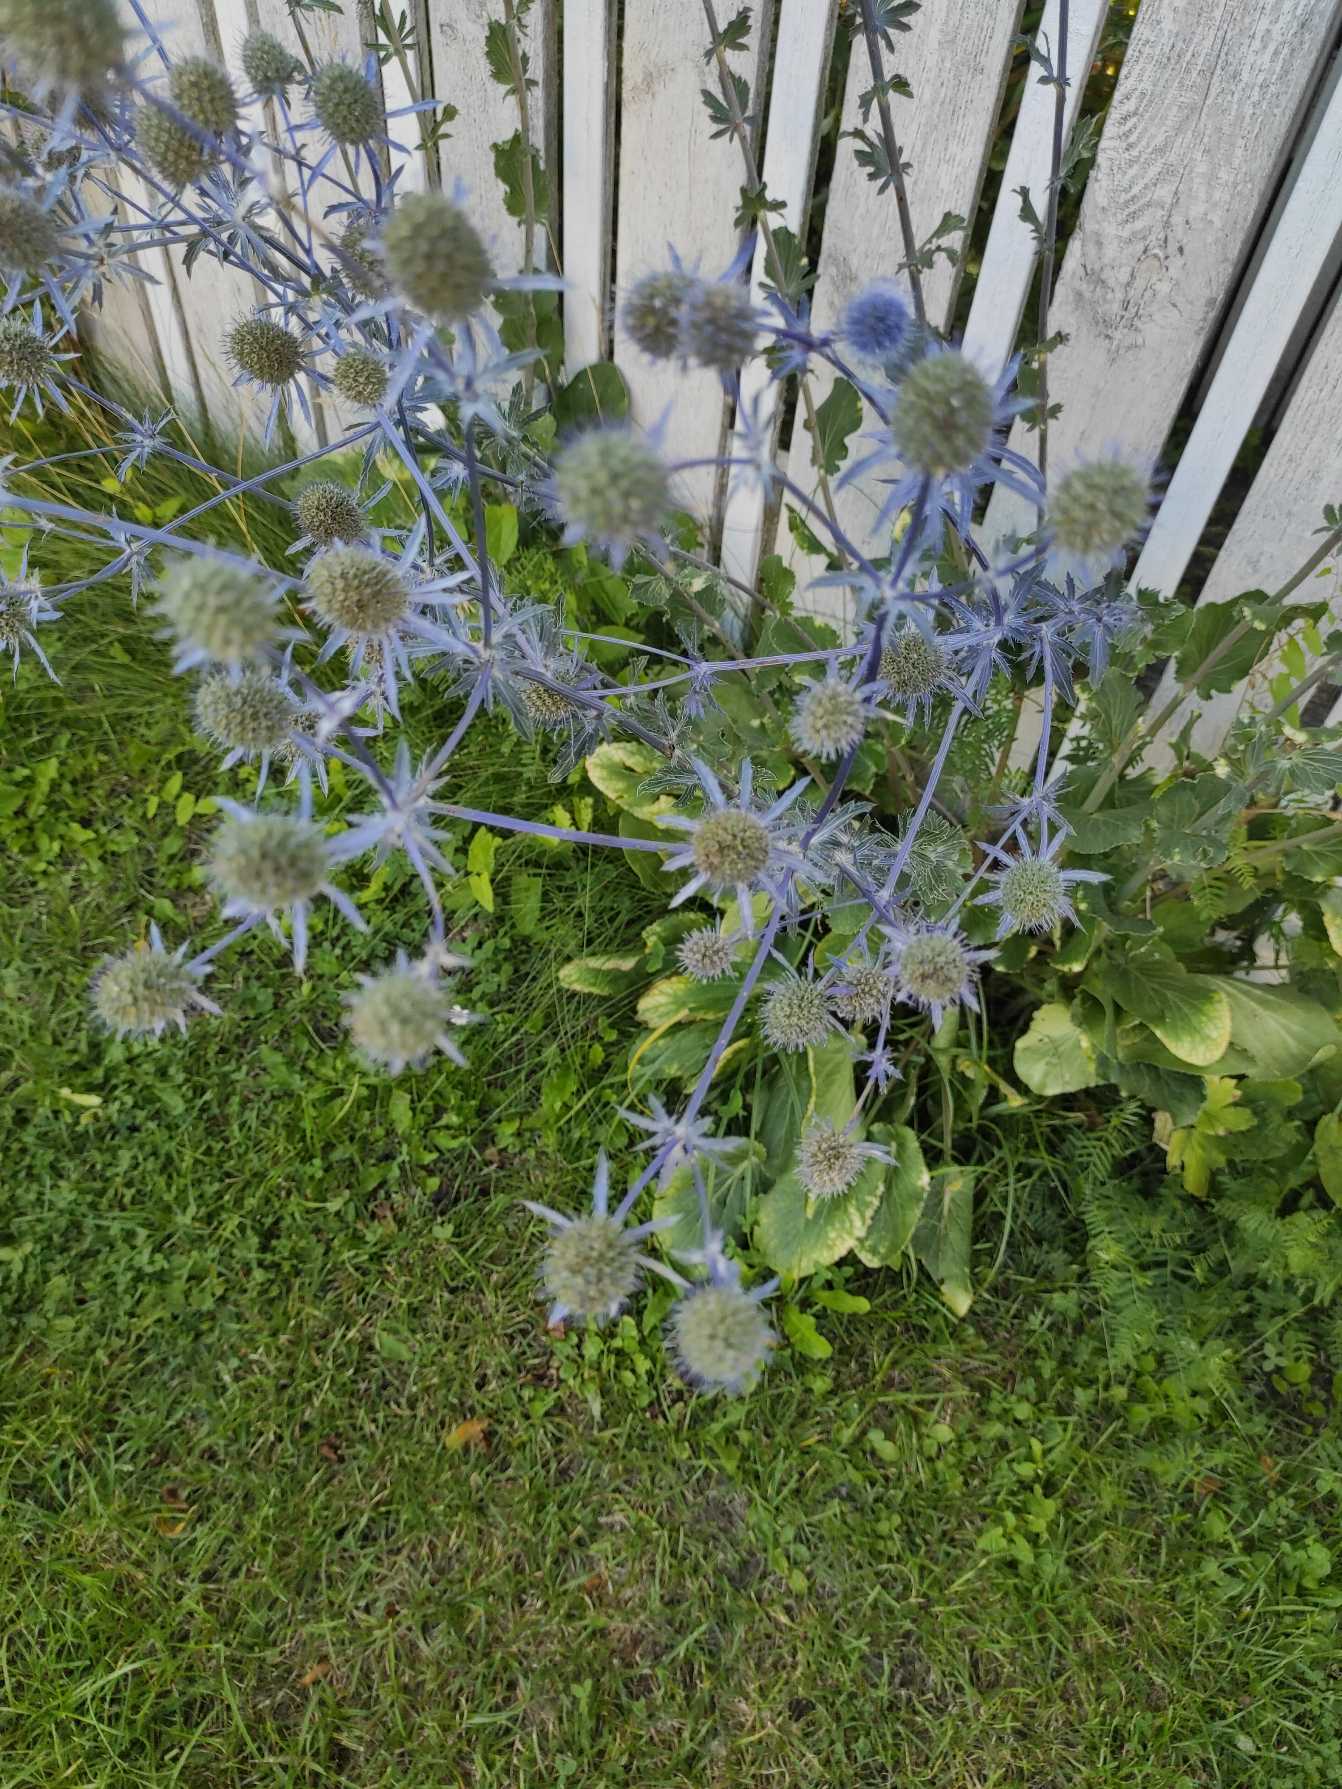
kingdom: Plantae
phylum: Tracheophyta
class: Magnoliopsida
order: Apiales
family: Apiaceae
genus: Eryngium
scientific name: Eryngium planum
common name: Russisk mandstro
